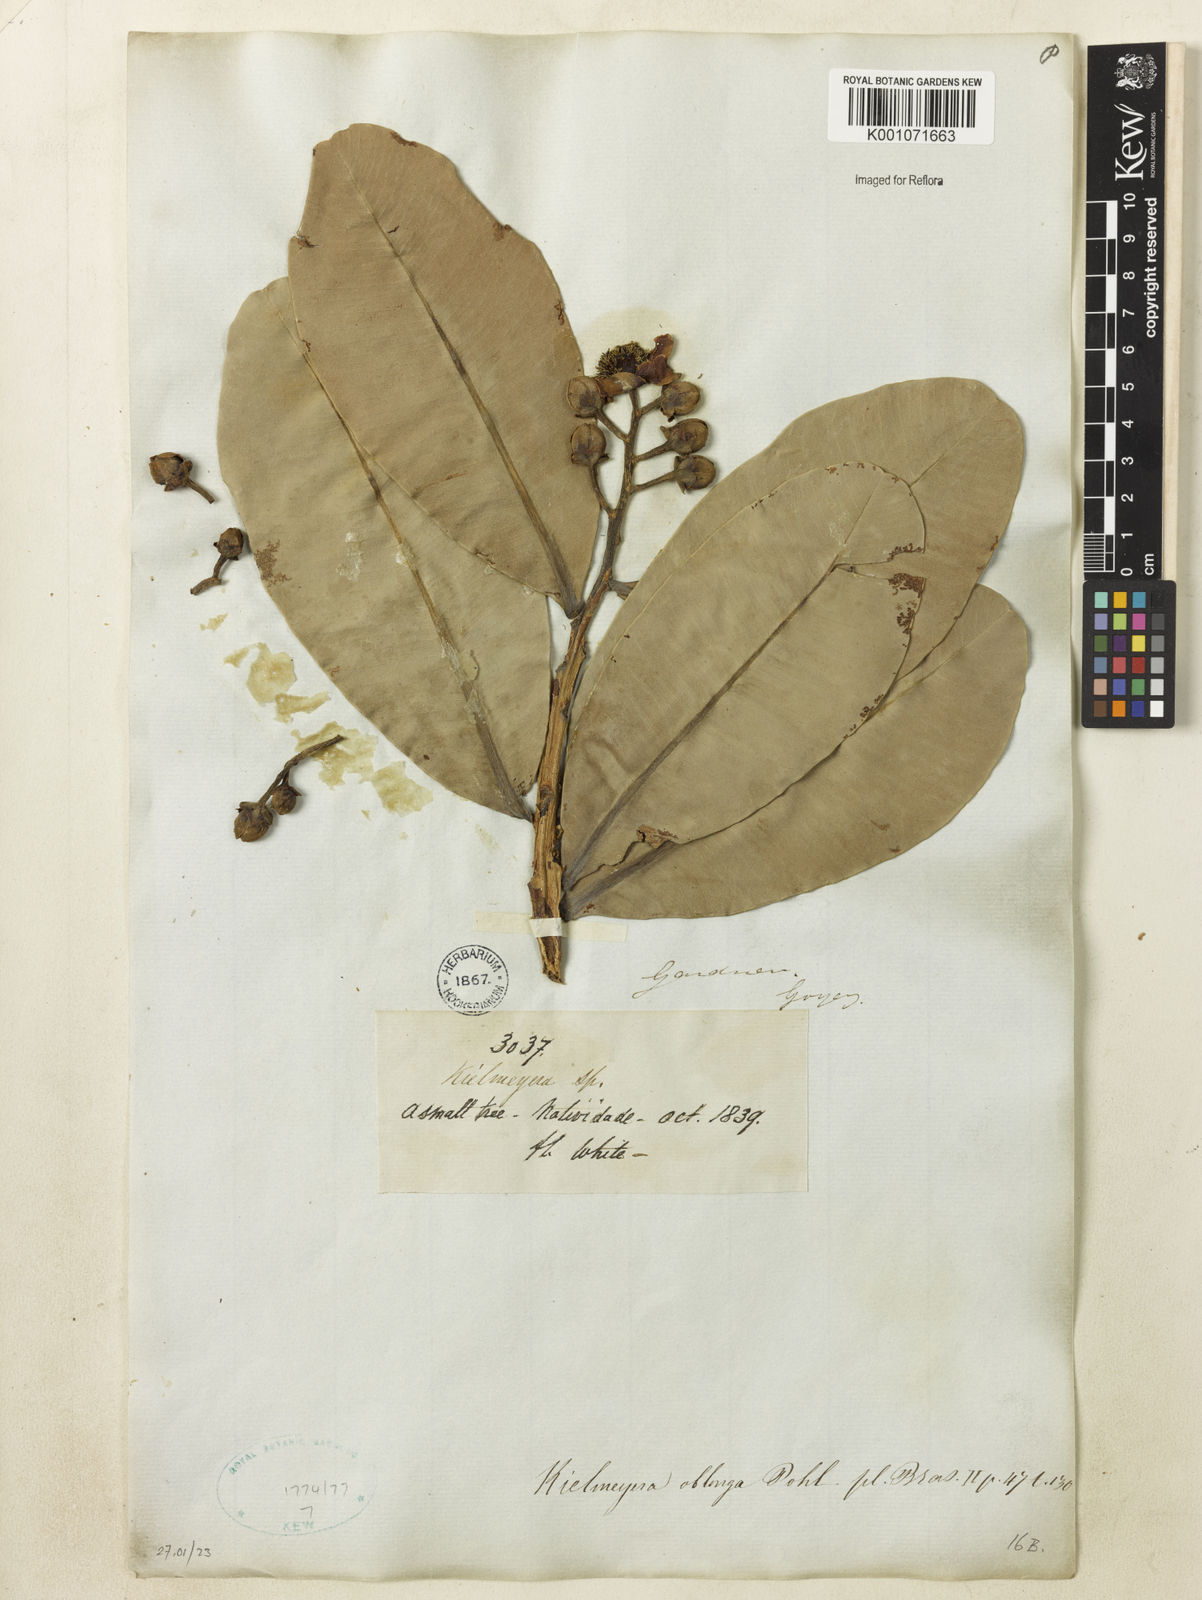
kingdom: Plantae
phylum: Tracheophyta
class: Magnoliopsida
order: Malpighiales
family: Calophyllaceae
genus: Kielmeyera
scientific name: Kielmeyera
